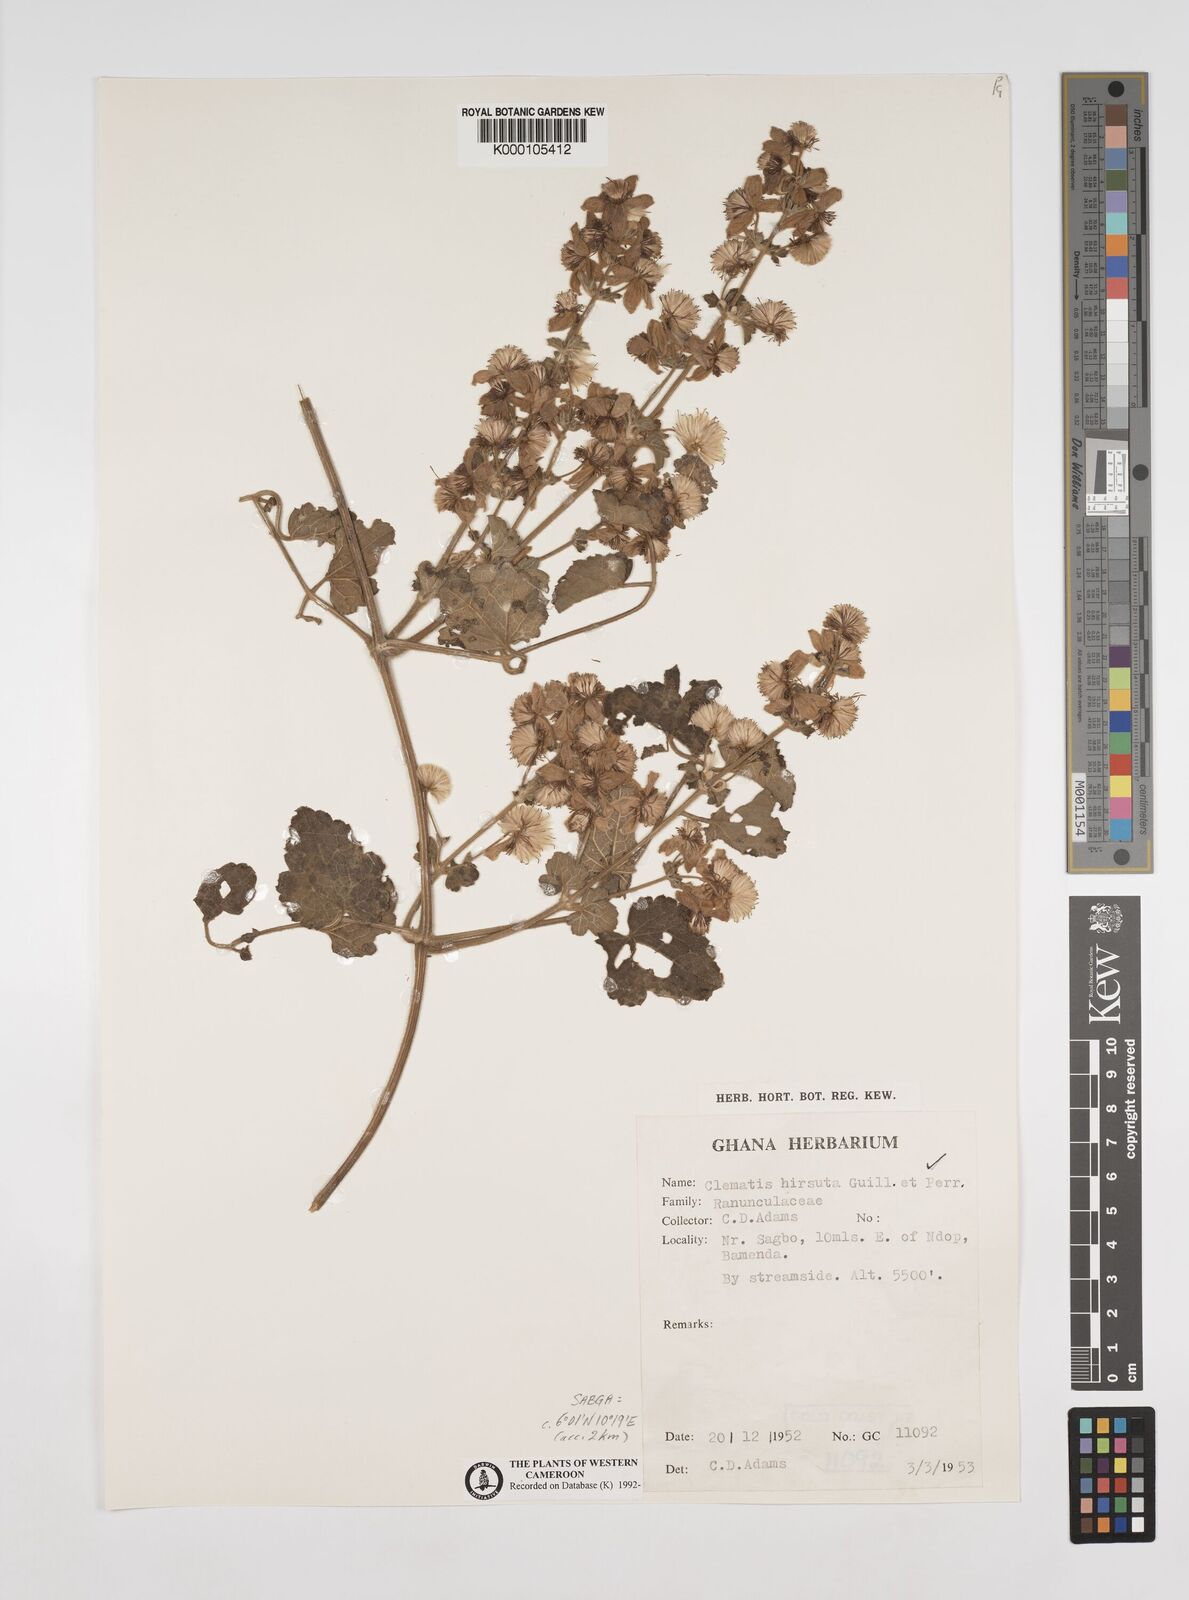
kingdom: Plantae
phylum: Tracheophyta
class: Magnoliopsida
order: Ranunculales
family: Ranunculaceae
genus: Clematis
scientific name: Clematis hirsuta
